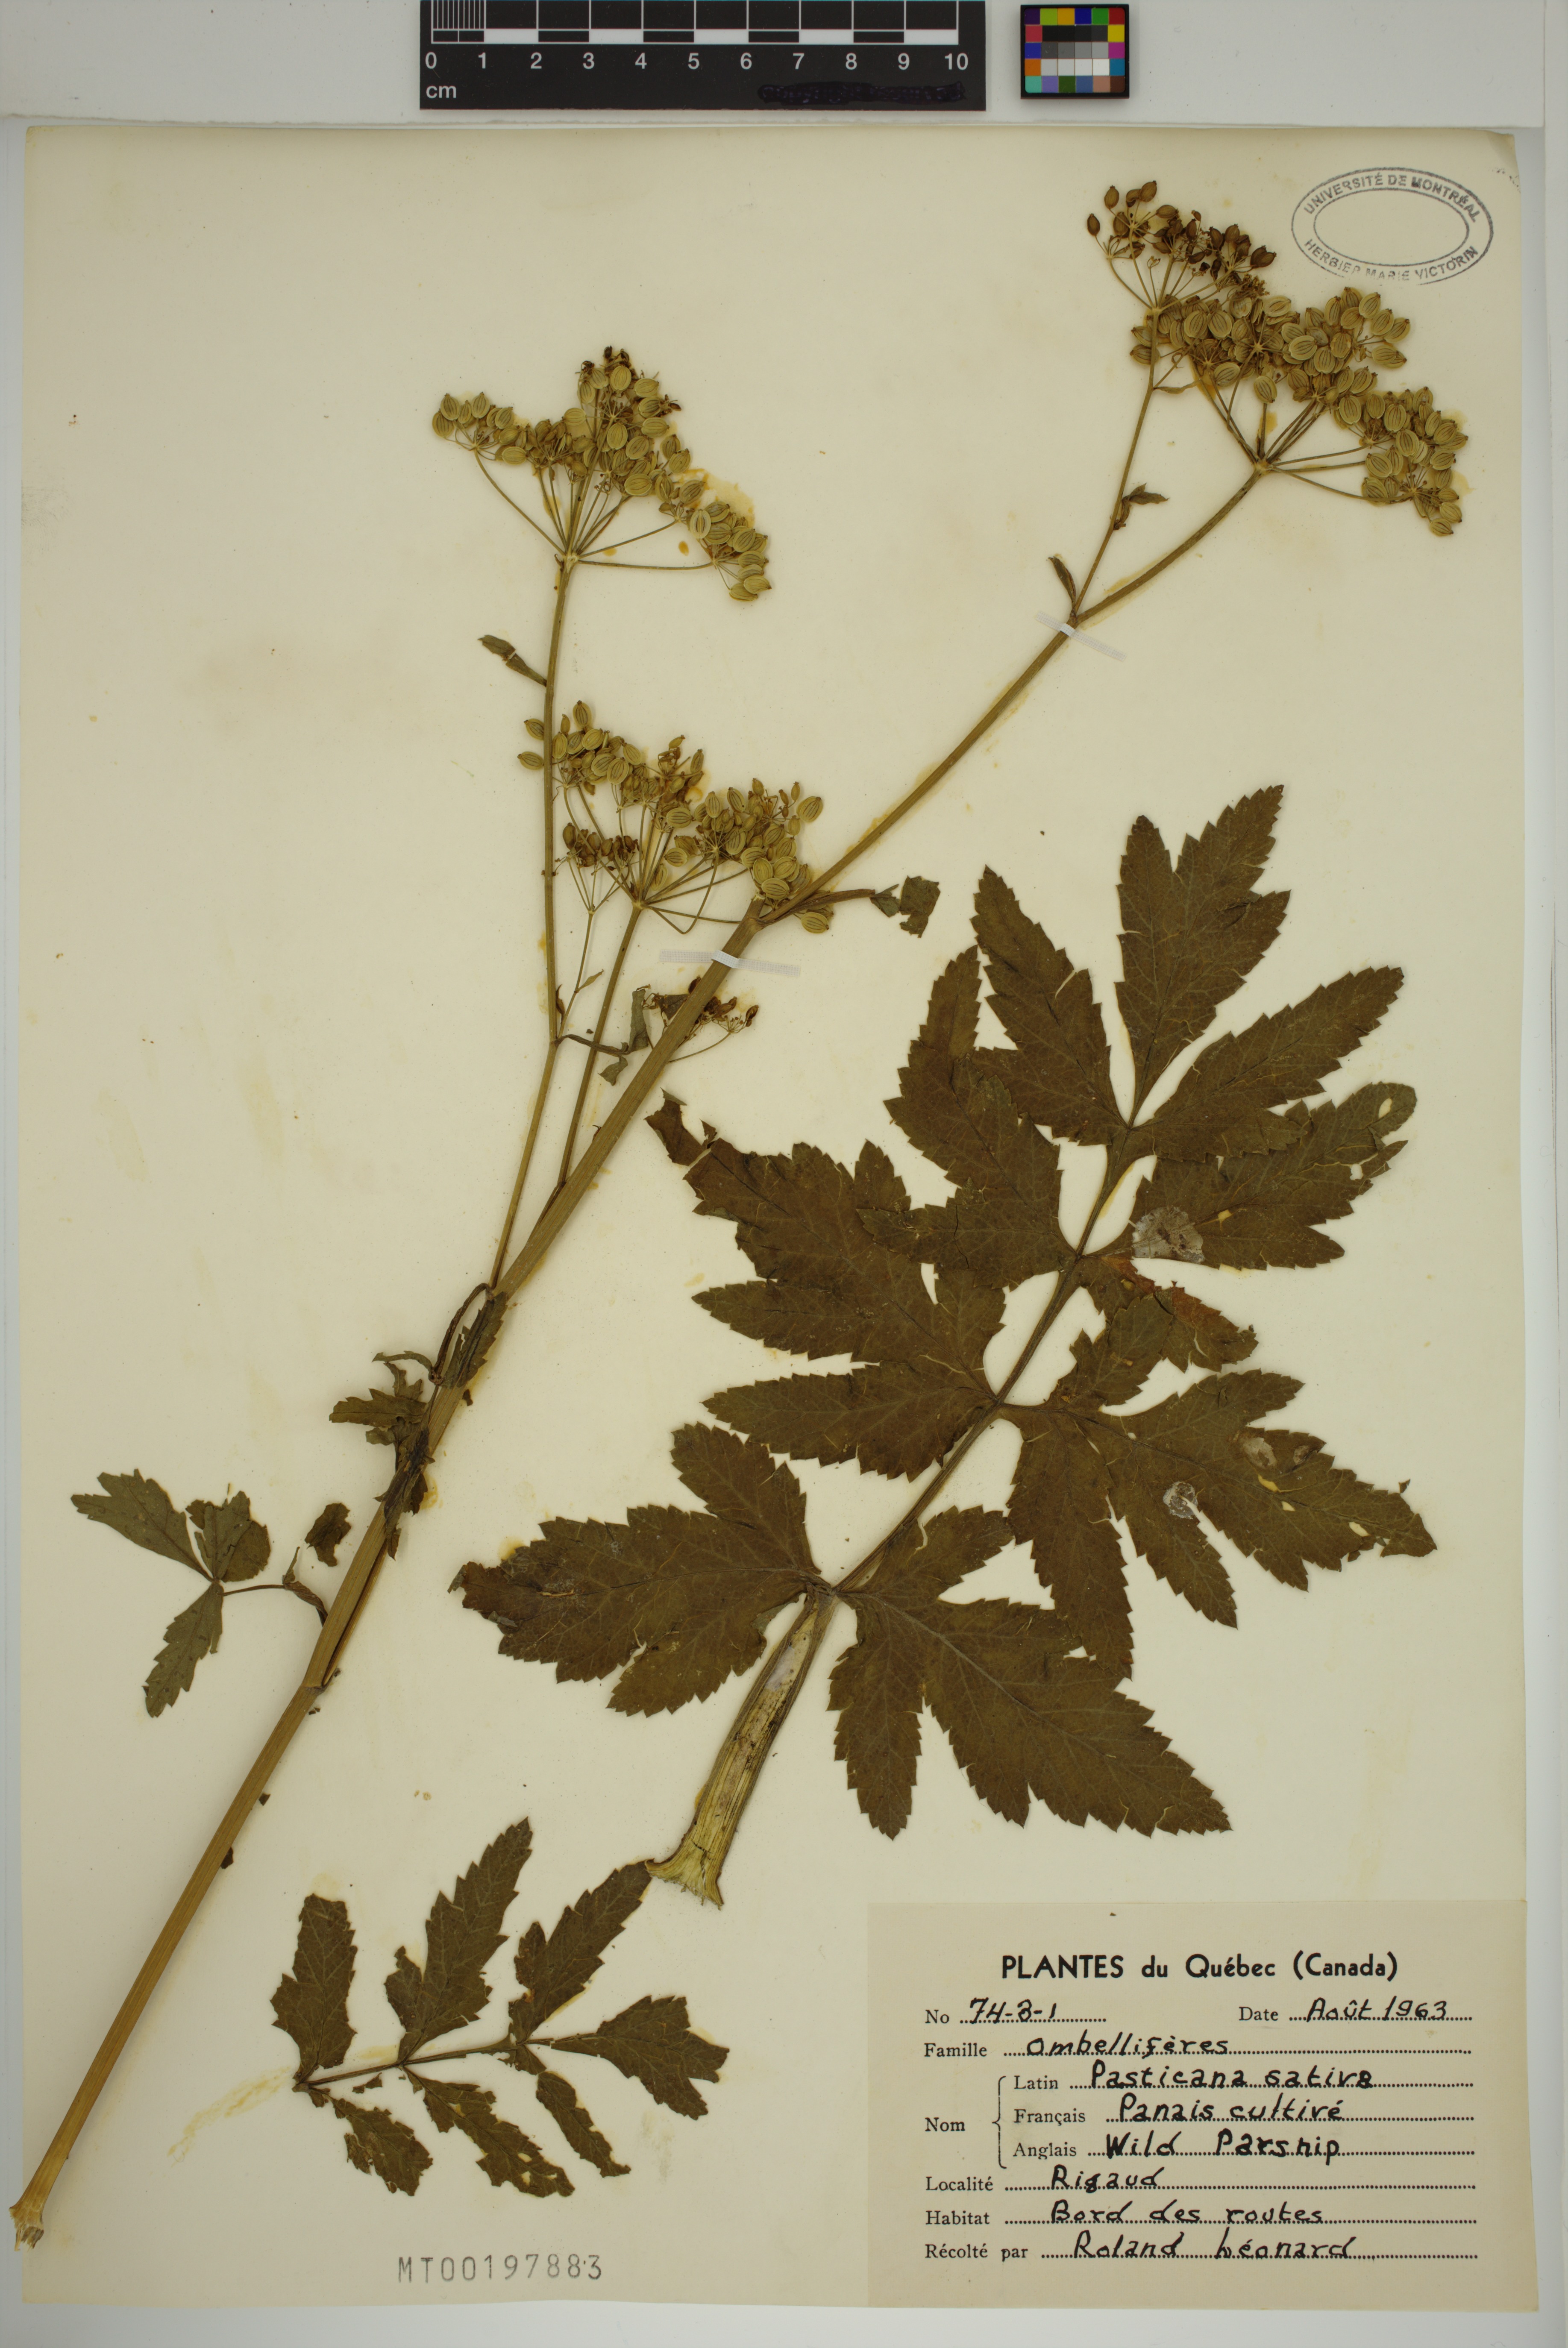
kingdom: Plantae
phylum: Tracheophyta
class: Magnoliopsida
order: Apiales
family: Apiaceae
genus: Pastinaca
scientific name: Pastinaca sativa
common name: Wild parsnip
